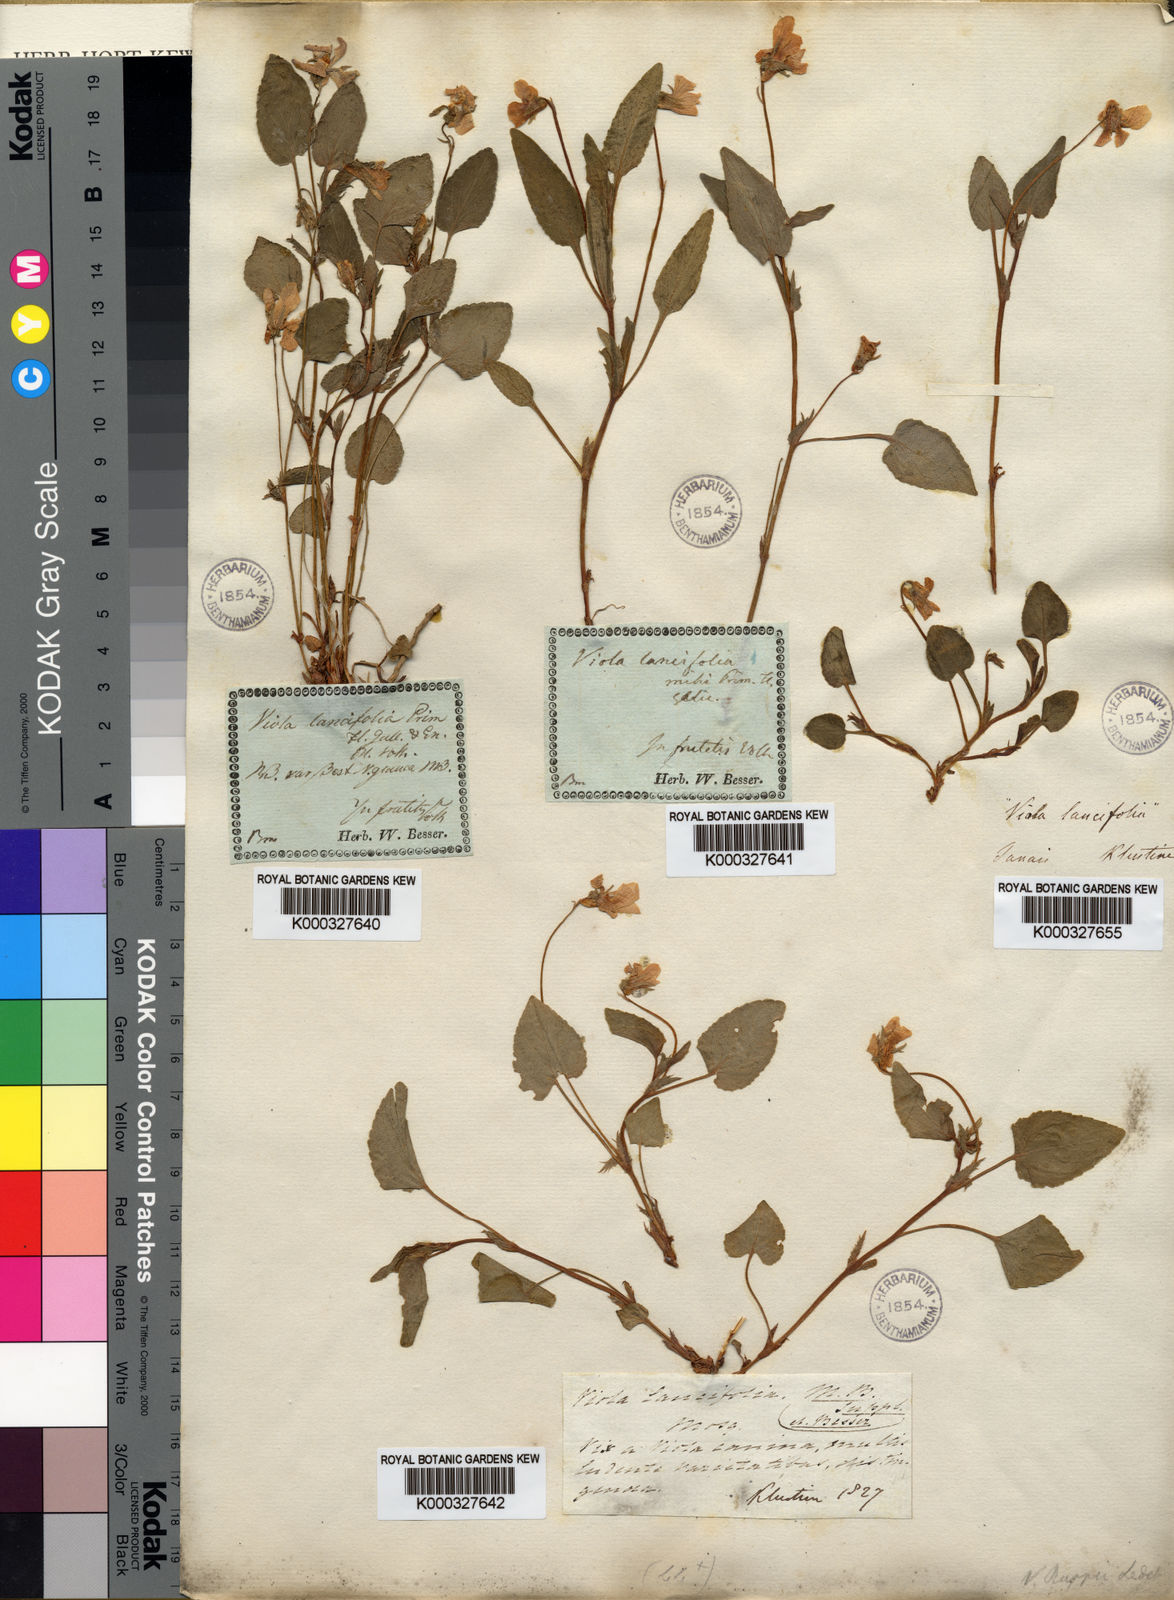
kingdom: Plantae
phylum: Tracheophyta
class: Magnoliopsida
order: Malpighiales
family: Violaceae
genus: Viola
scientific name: Viola canina
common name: Heath dog-violet
